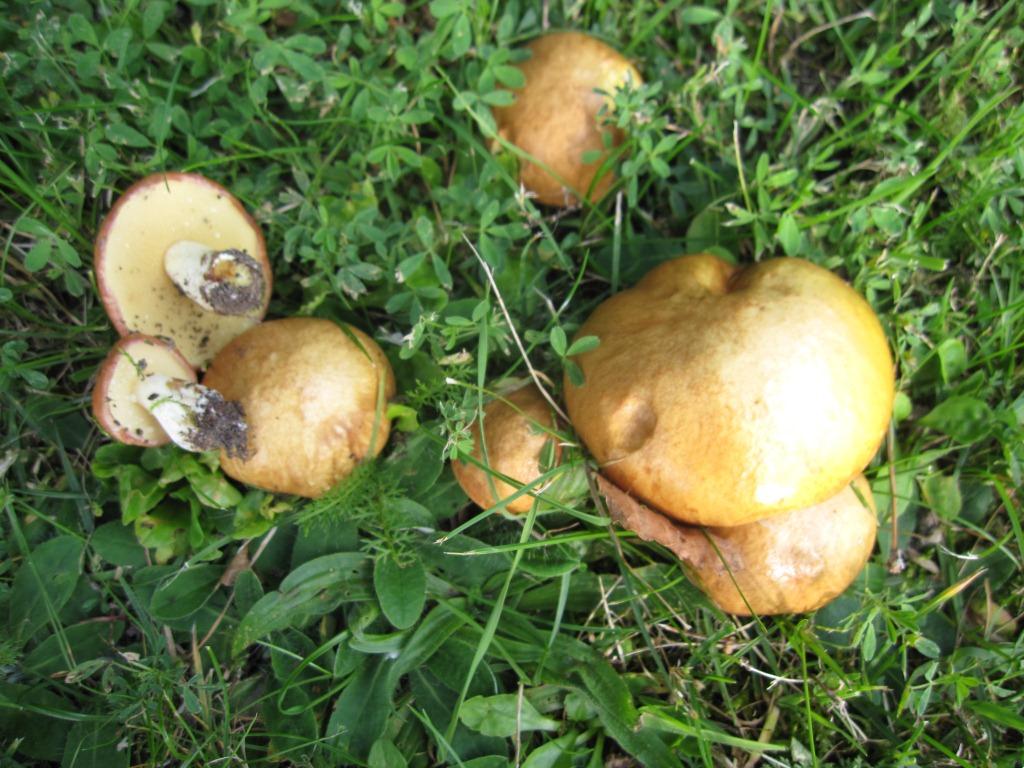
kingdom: Fungi
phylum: Basidiomycota
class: Agaricomycetes
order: Boletales
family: Suillaceae
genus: Suillus
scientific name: Suillus granulatus
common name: kornet slimrørhat
